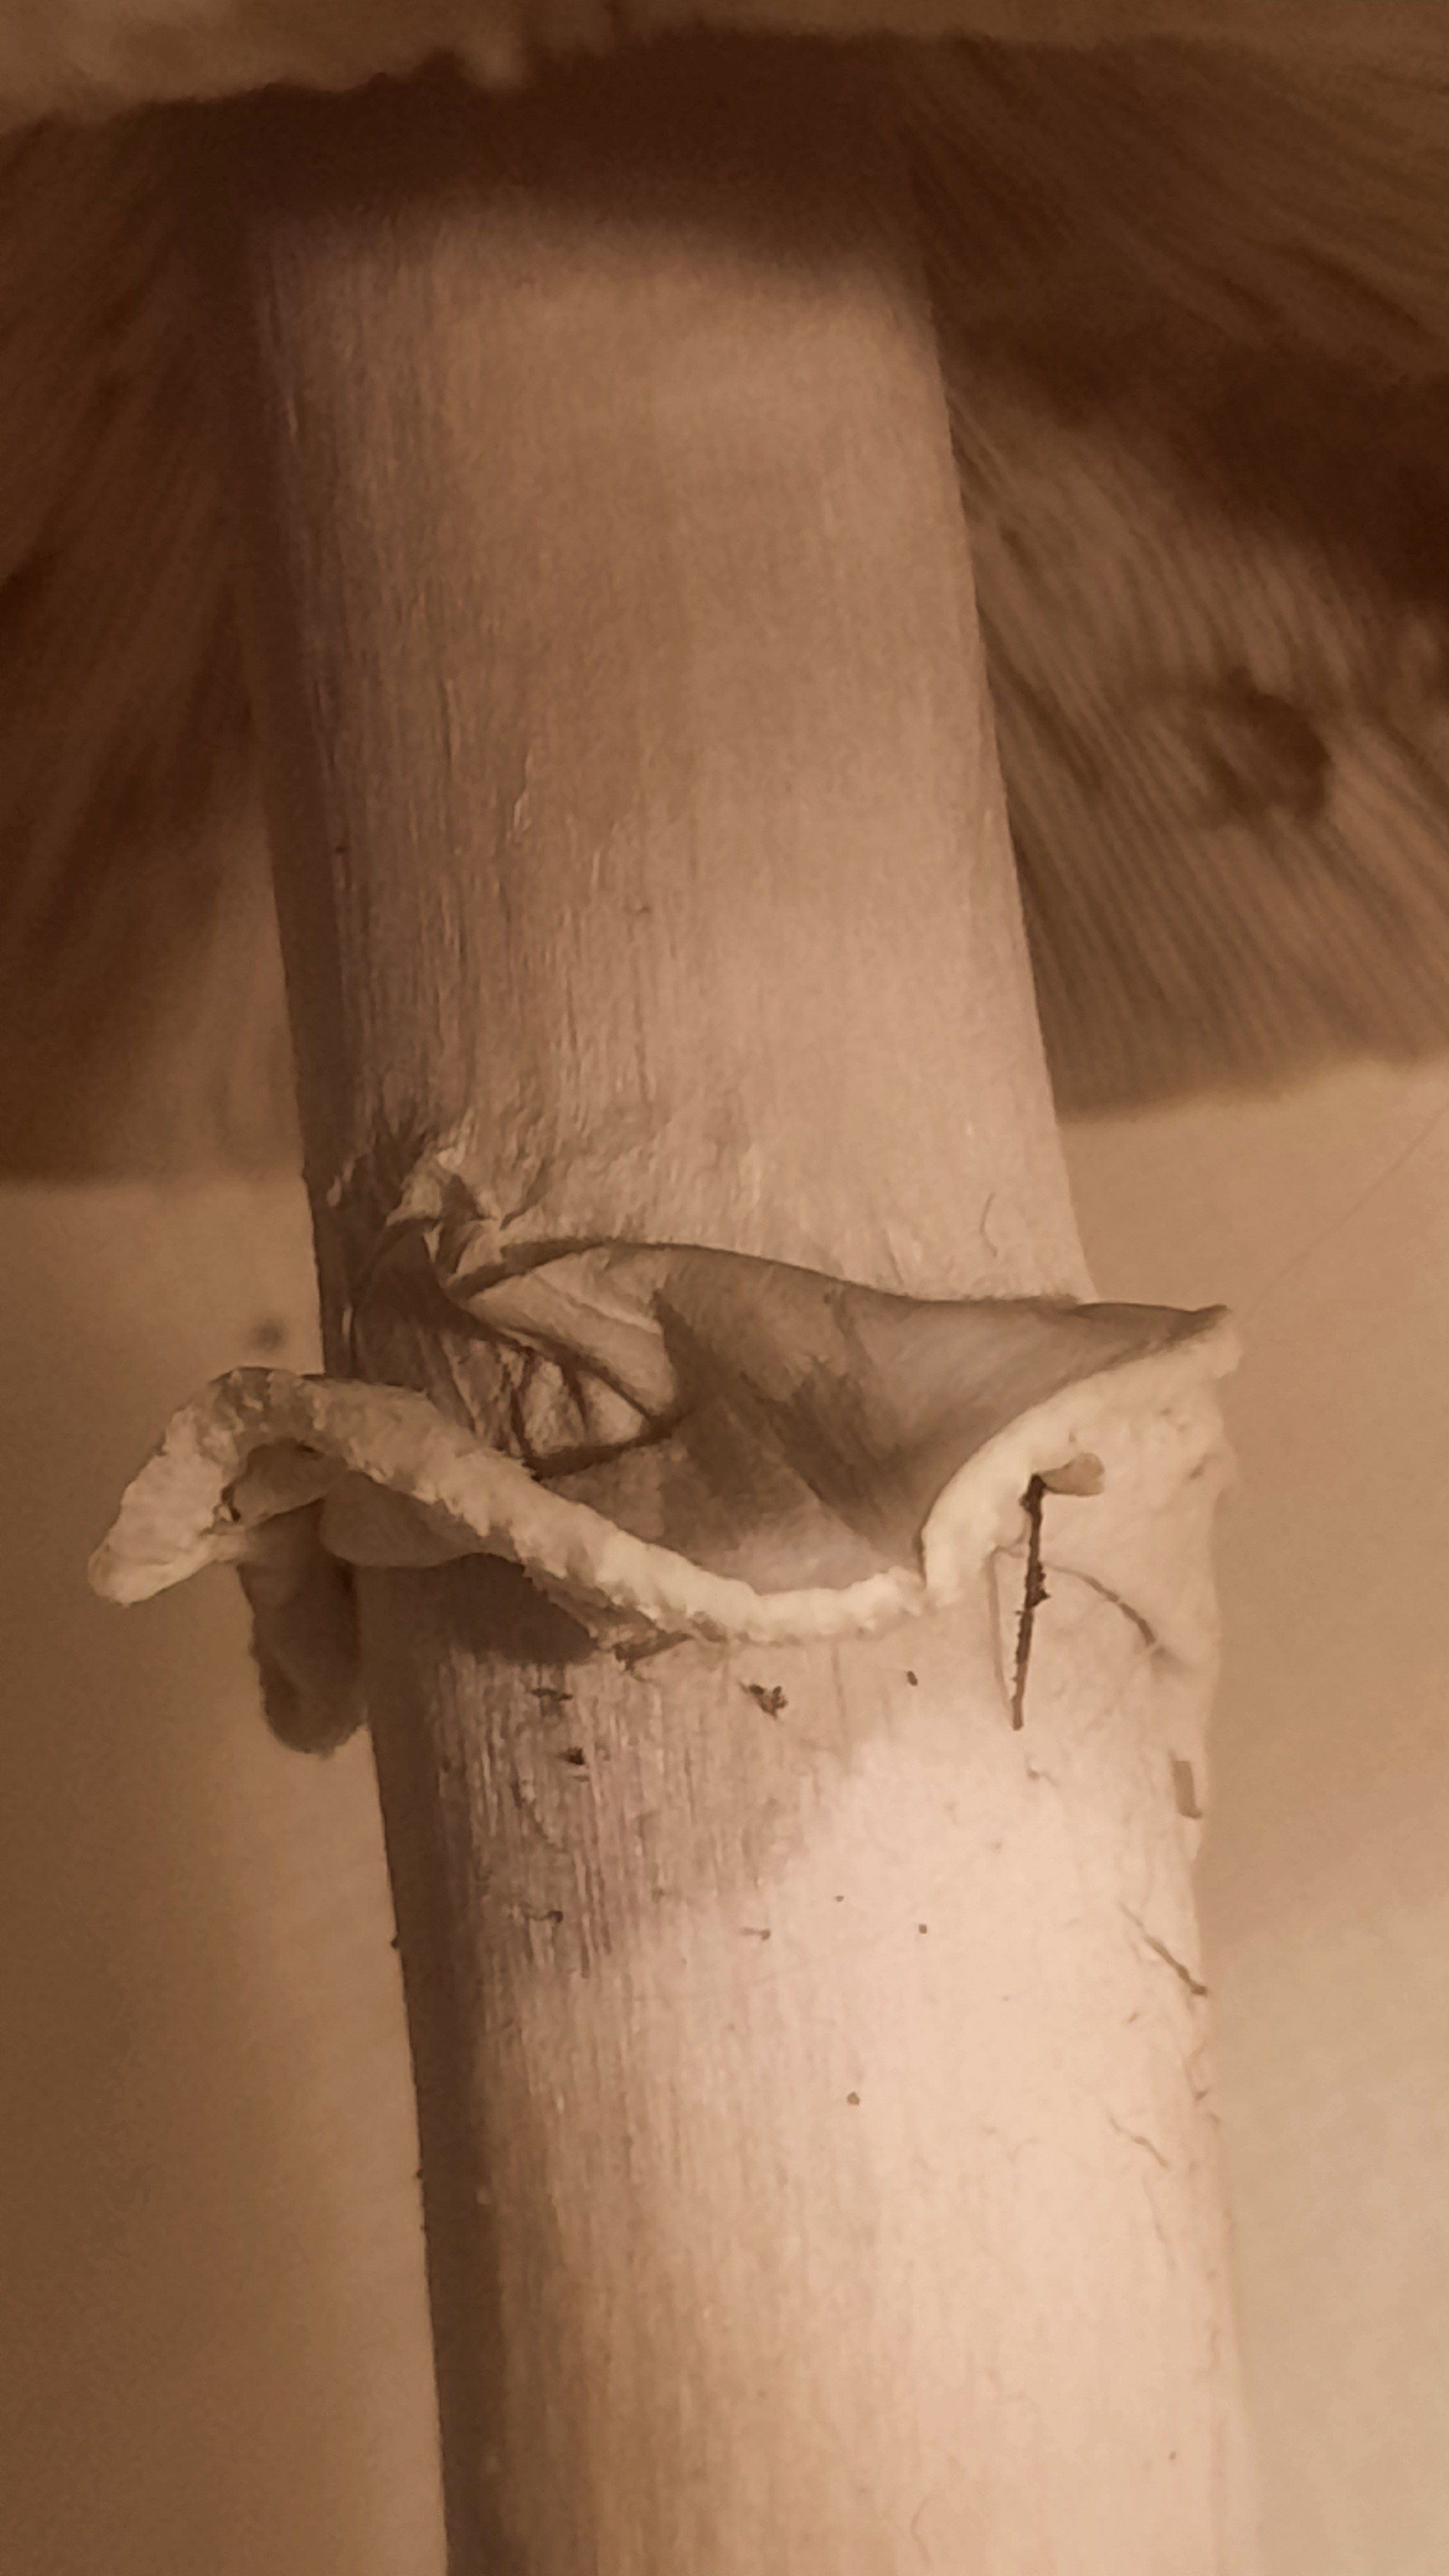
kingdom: Fungi
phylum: Basidiomycota
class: Agaricomycetes
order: Agaricales
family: Agaricaceae
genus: Agaricus
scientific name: Agaricus sylvicola
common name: skiveknoldet champignon
